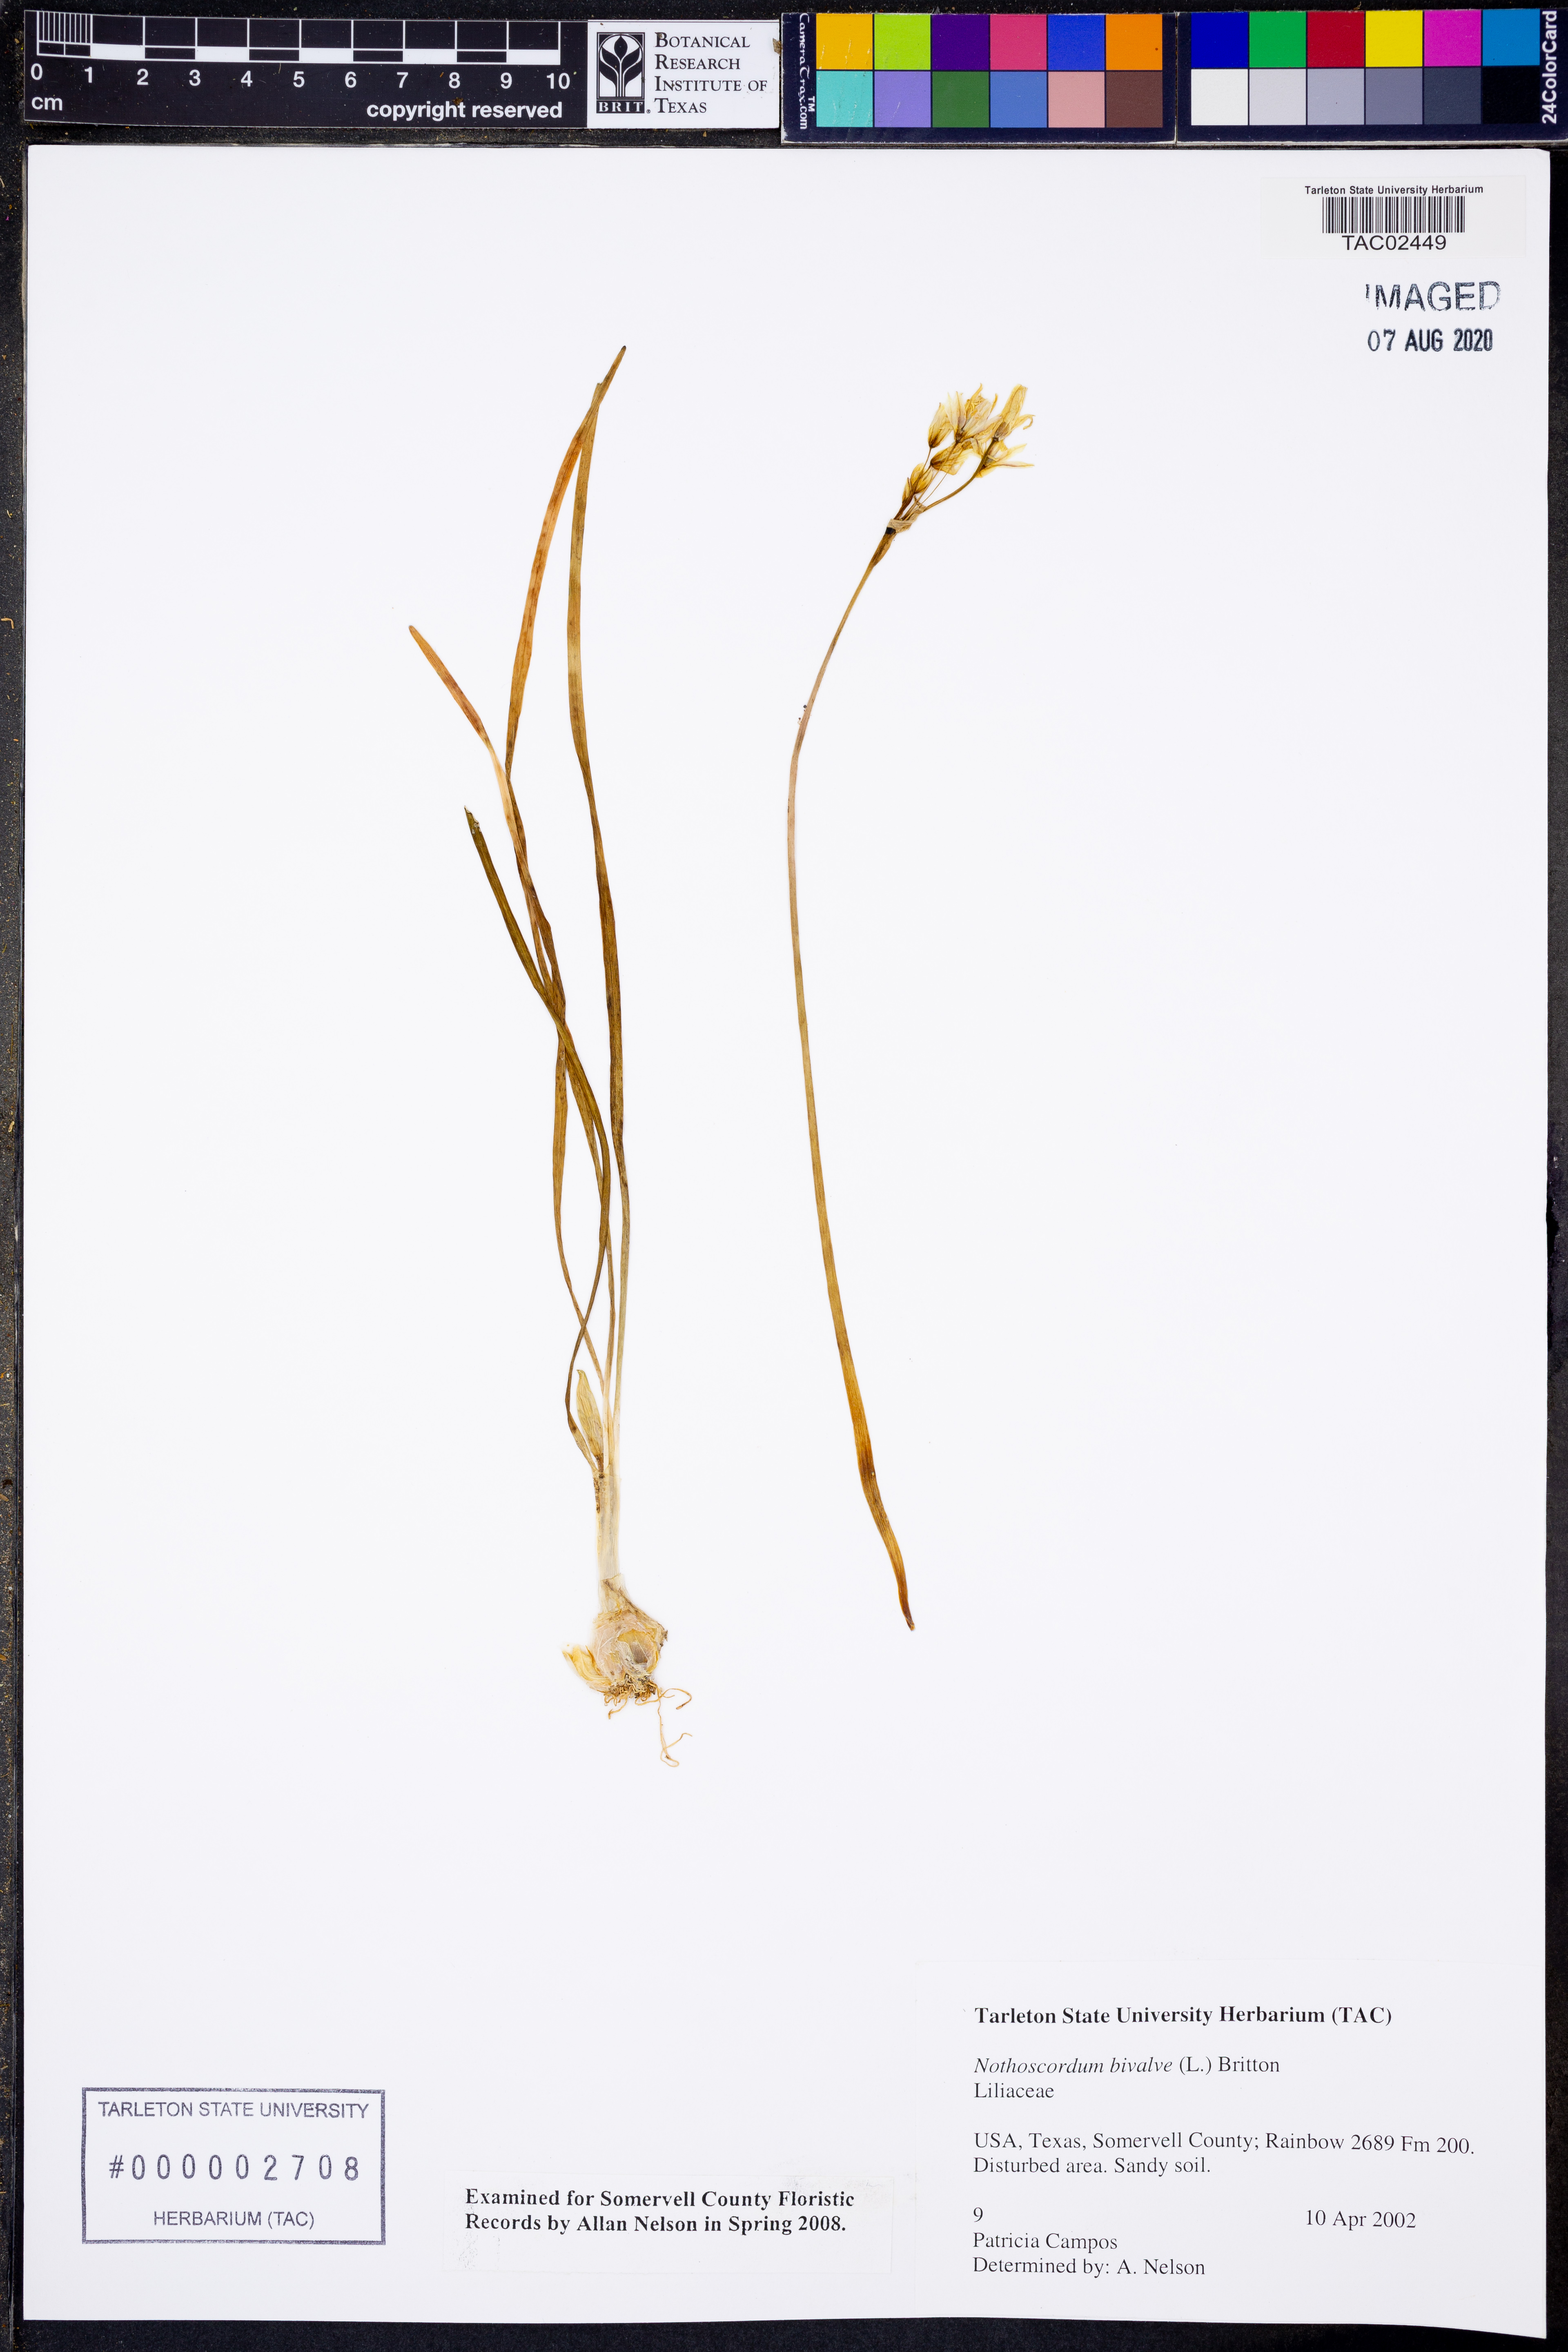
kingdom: Plantae
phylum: Tracheophyta
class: Liliopsida
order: Asparagales
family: Amaryllidaceae
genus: Nothoscordum
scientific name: Nothoscordum bivalve
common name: Crow-poison
